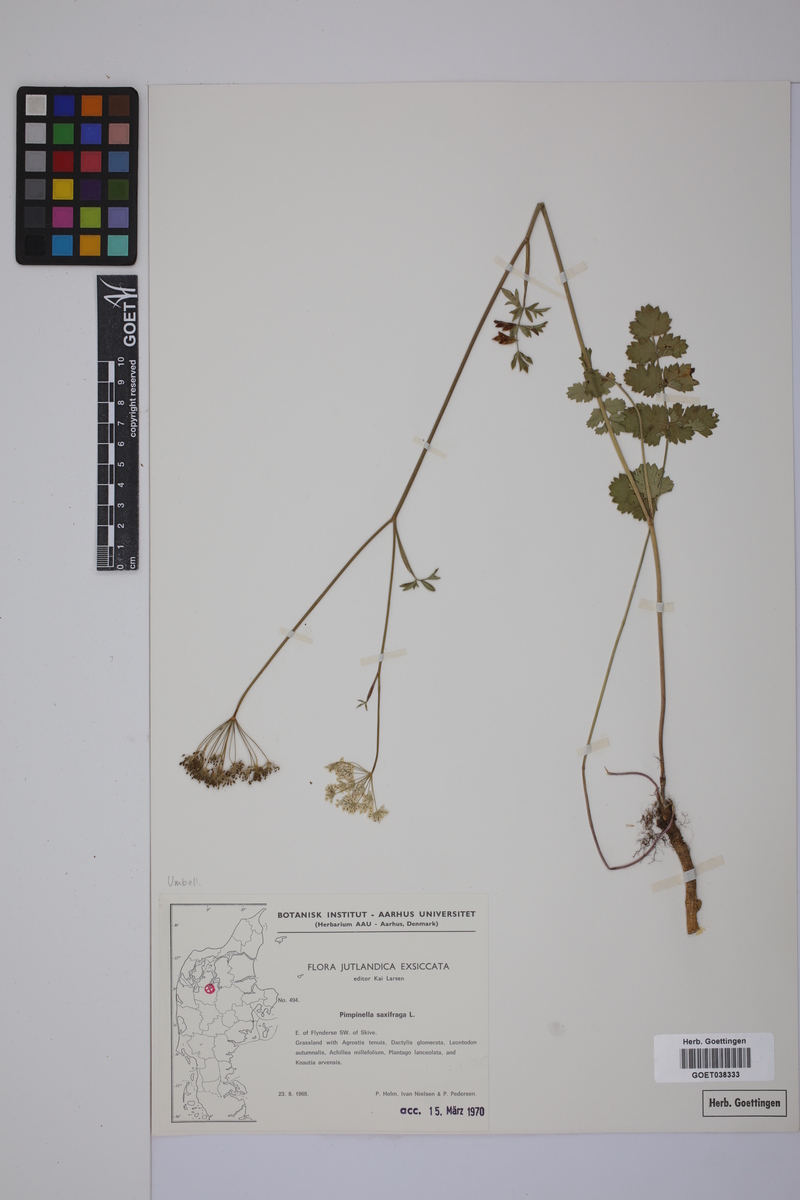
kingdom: Plantae
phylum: Tracheophyta
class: Magnoliopsida
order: Apiales
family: Apiaceae
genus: Pimpinella
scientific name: Pimpinella saxifraga
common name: Burnet-saxifrage
